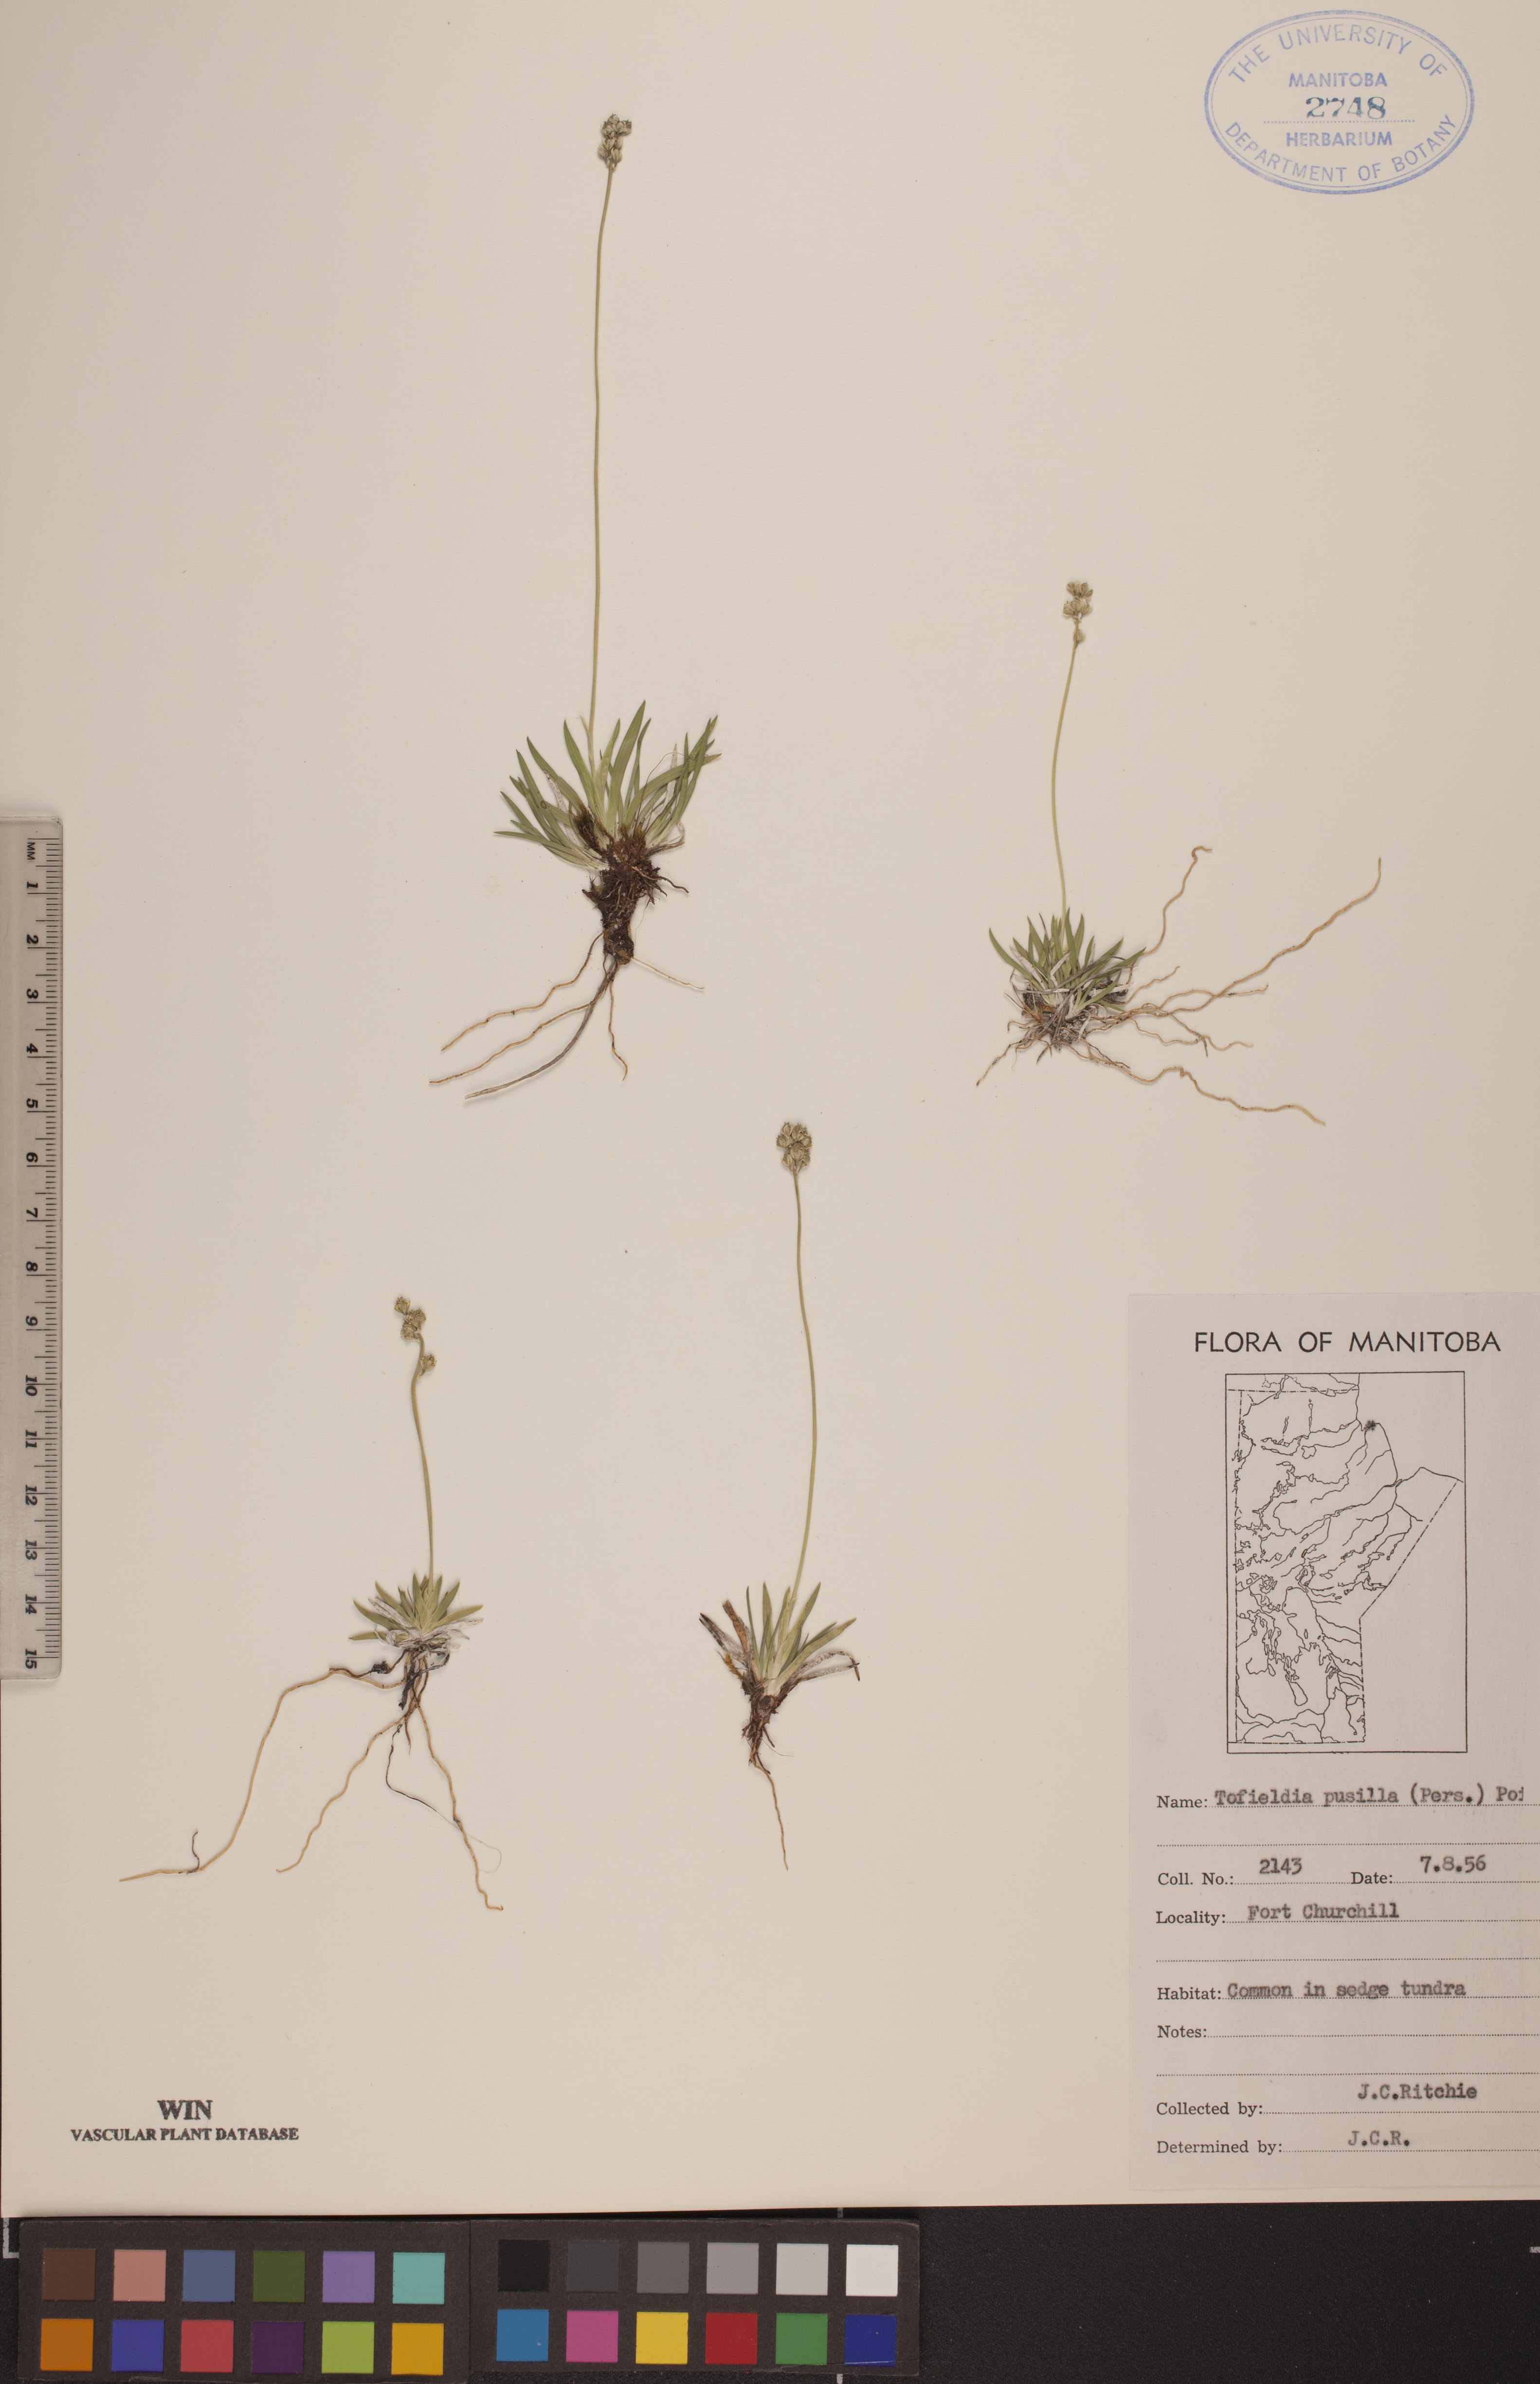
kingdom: Plantae
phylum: Tracheophyta
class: Liliopsida
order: Alismatales
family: Tofieldiaceae
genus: Tofieldia
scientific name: Tofieldia pusilla
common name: Scottish false asphodel
